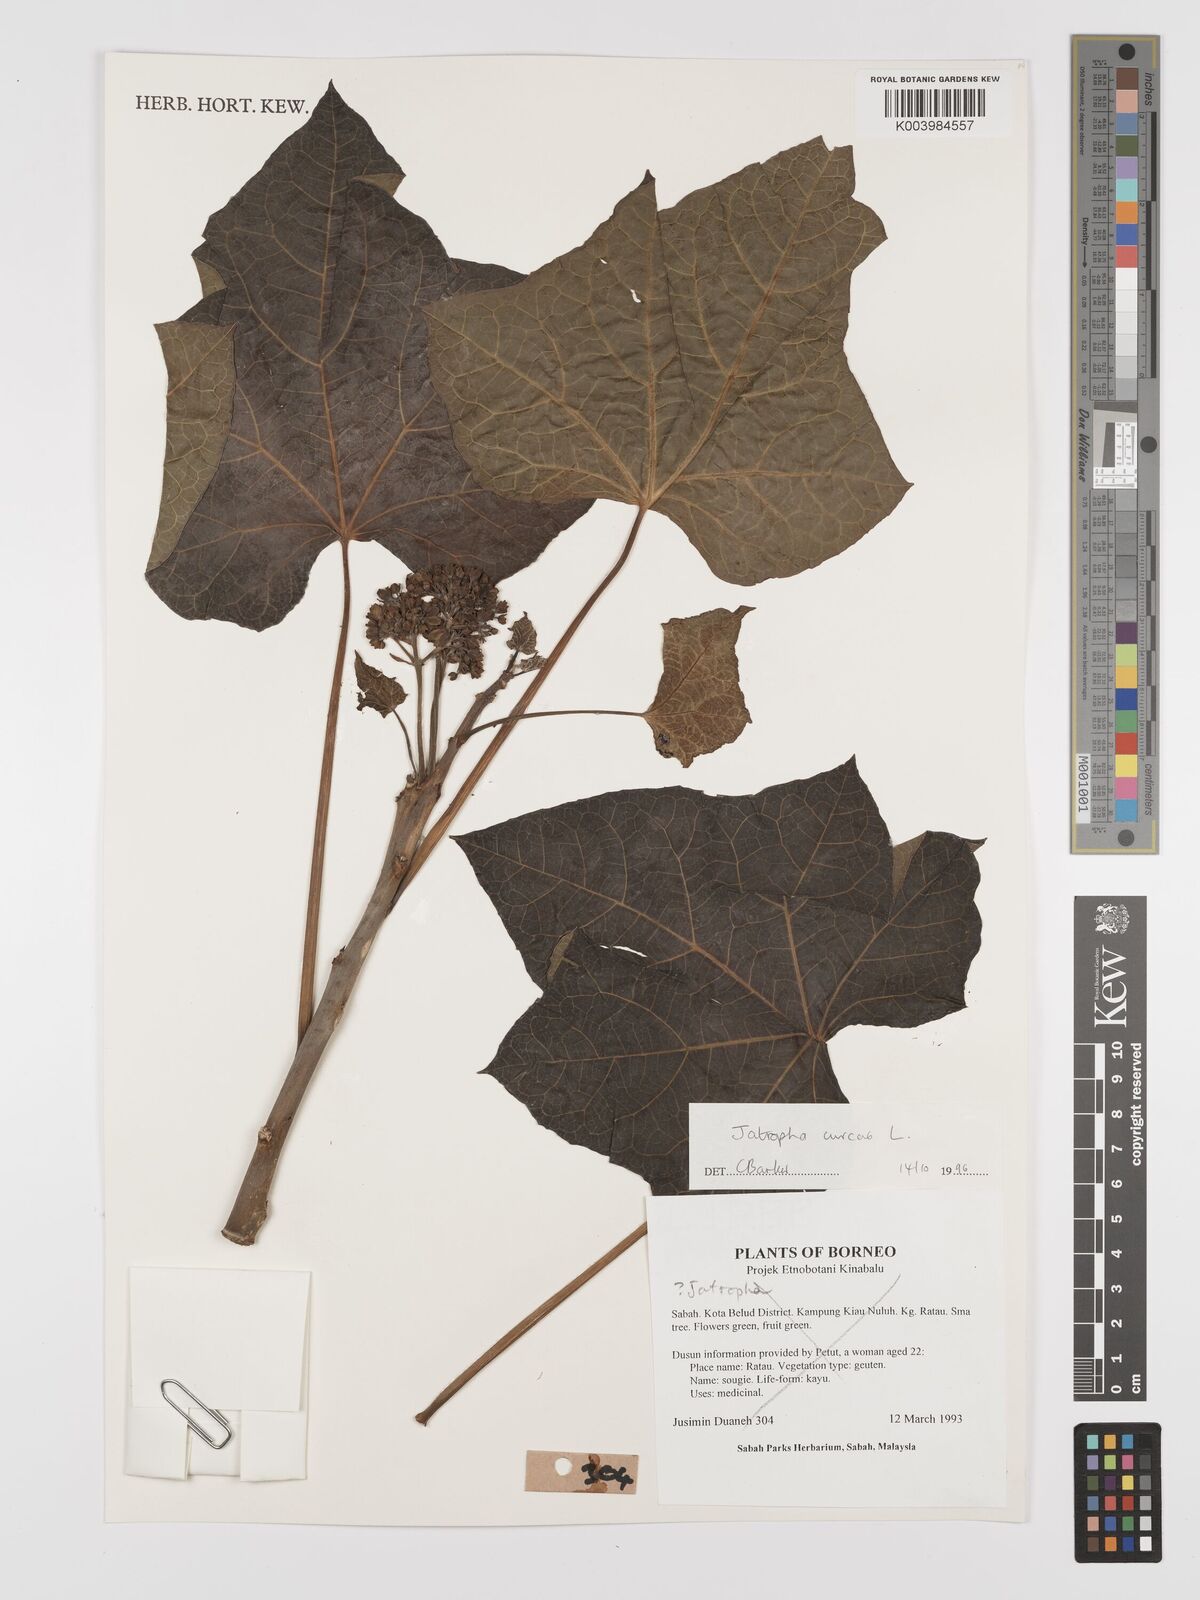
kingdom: Plantae
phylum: Tracheophyta
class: Magnoliopsida
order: Malpighiales
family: Euphorbiaceae
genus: Jatropha
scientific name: Jatropha curcas
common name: Barbados nut
